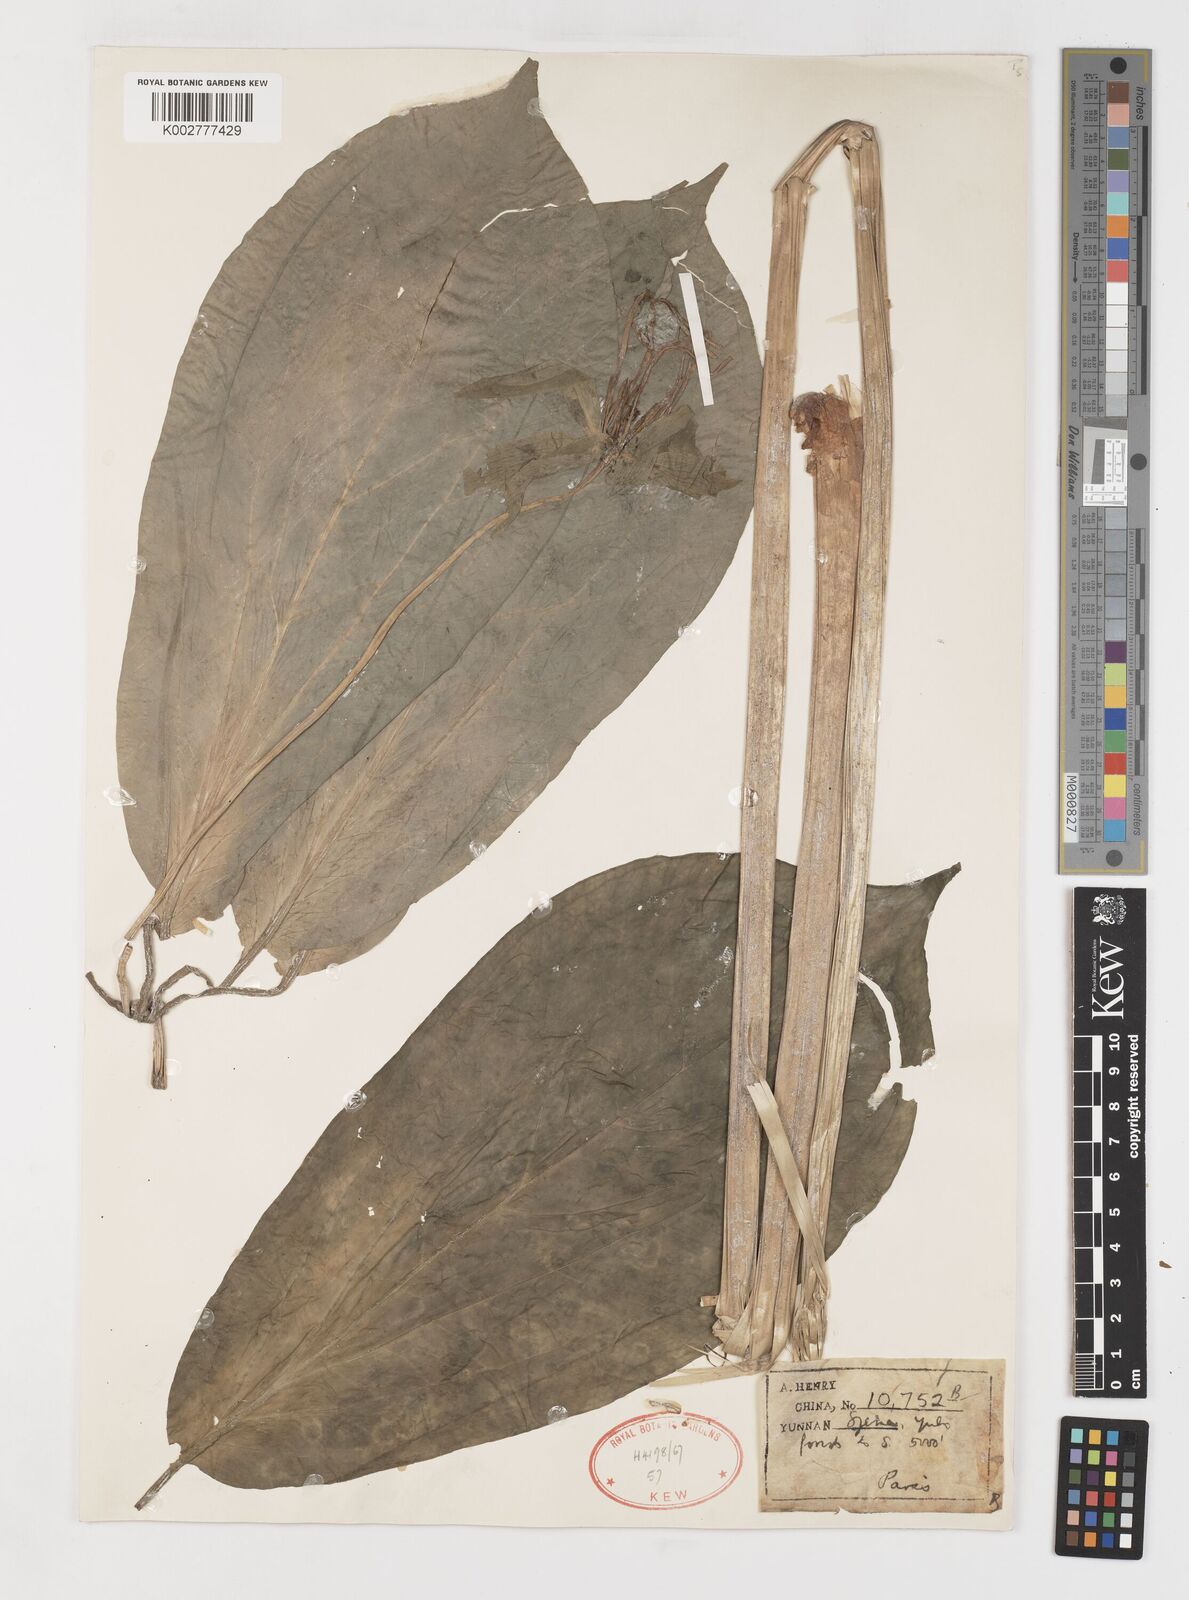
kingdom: Plantae
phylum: Tracheophyta
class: Liliopsida
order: Liliales
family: Melanthiaceae
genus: Paris
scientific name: Paris chinensis
